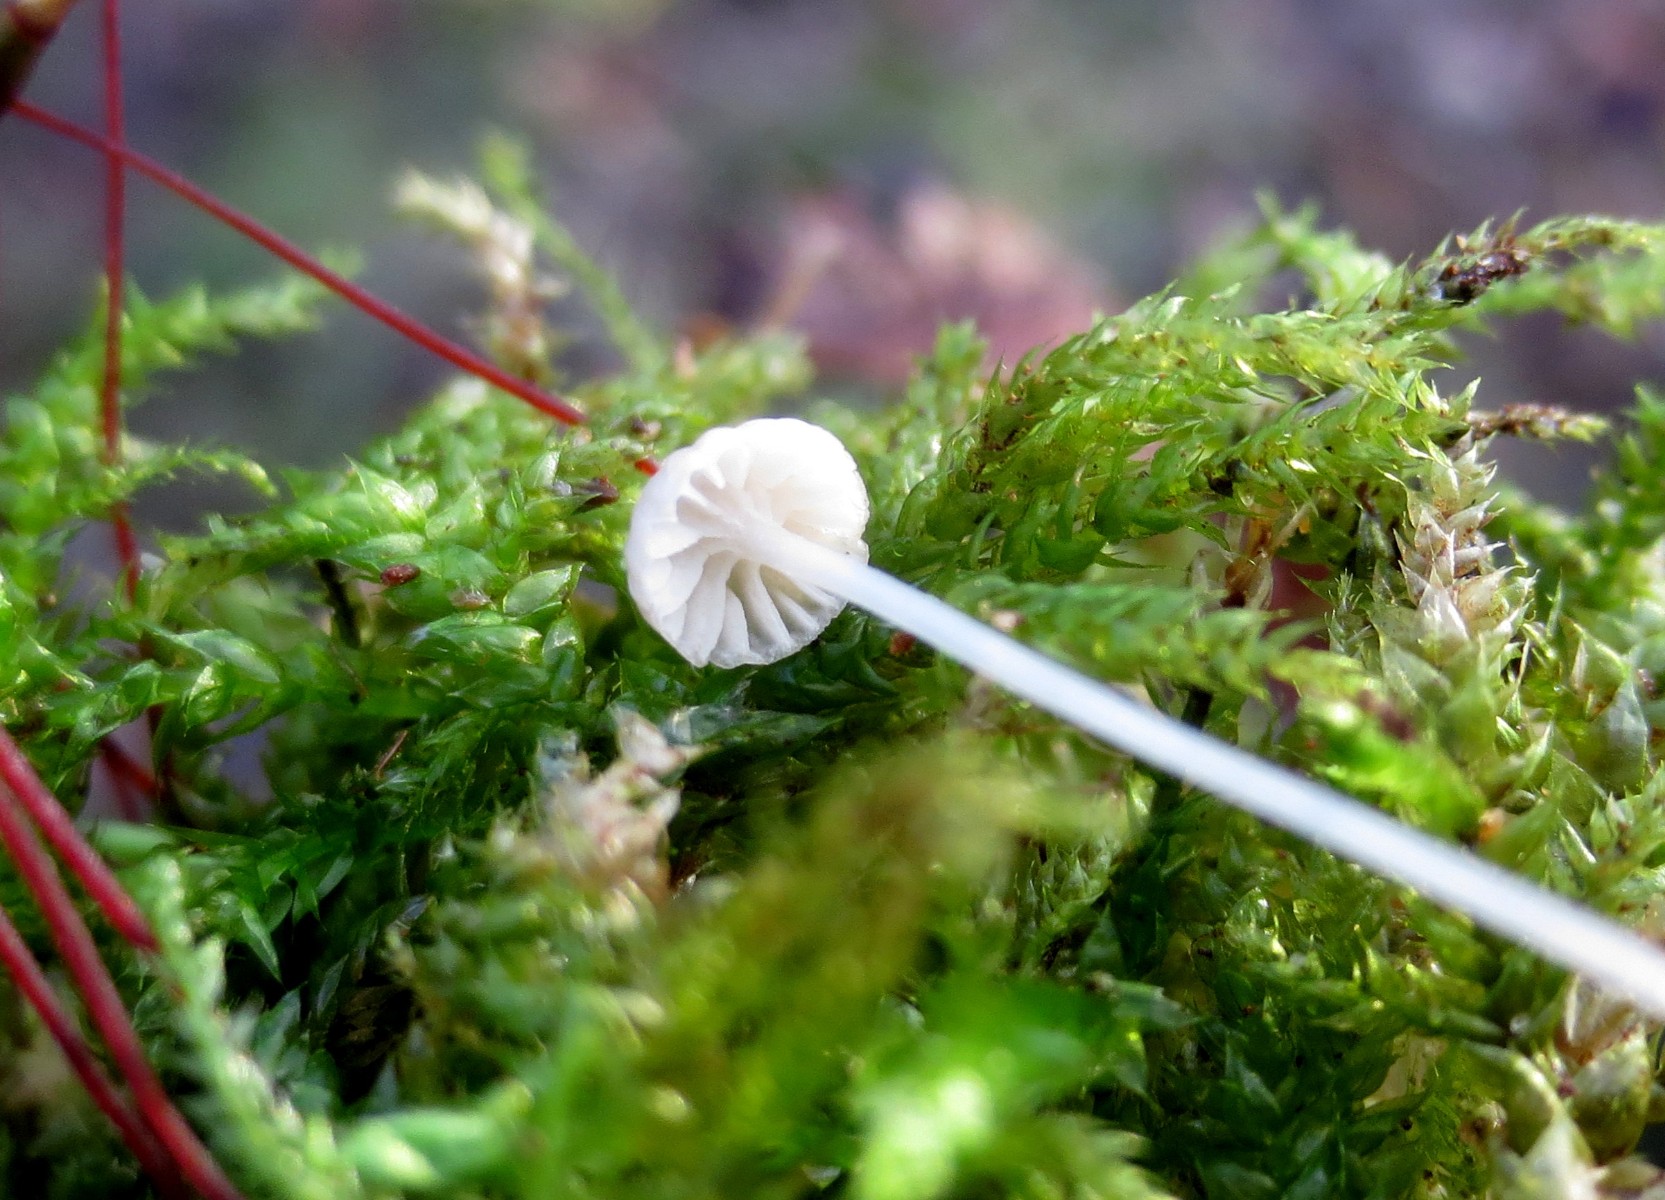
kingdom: Fungi
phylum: Basidiomycota
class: Agaricomycetes
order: Agaricales
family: Porotheleaceae
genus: Phloeomana
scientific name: Phloeomana speirea
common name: kvist-huesvamp
